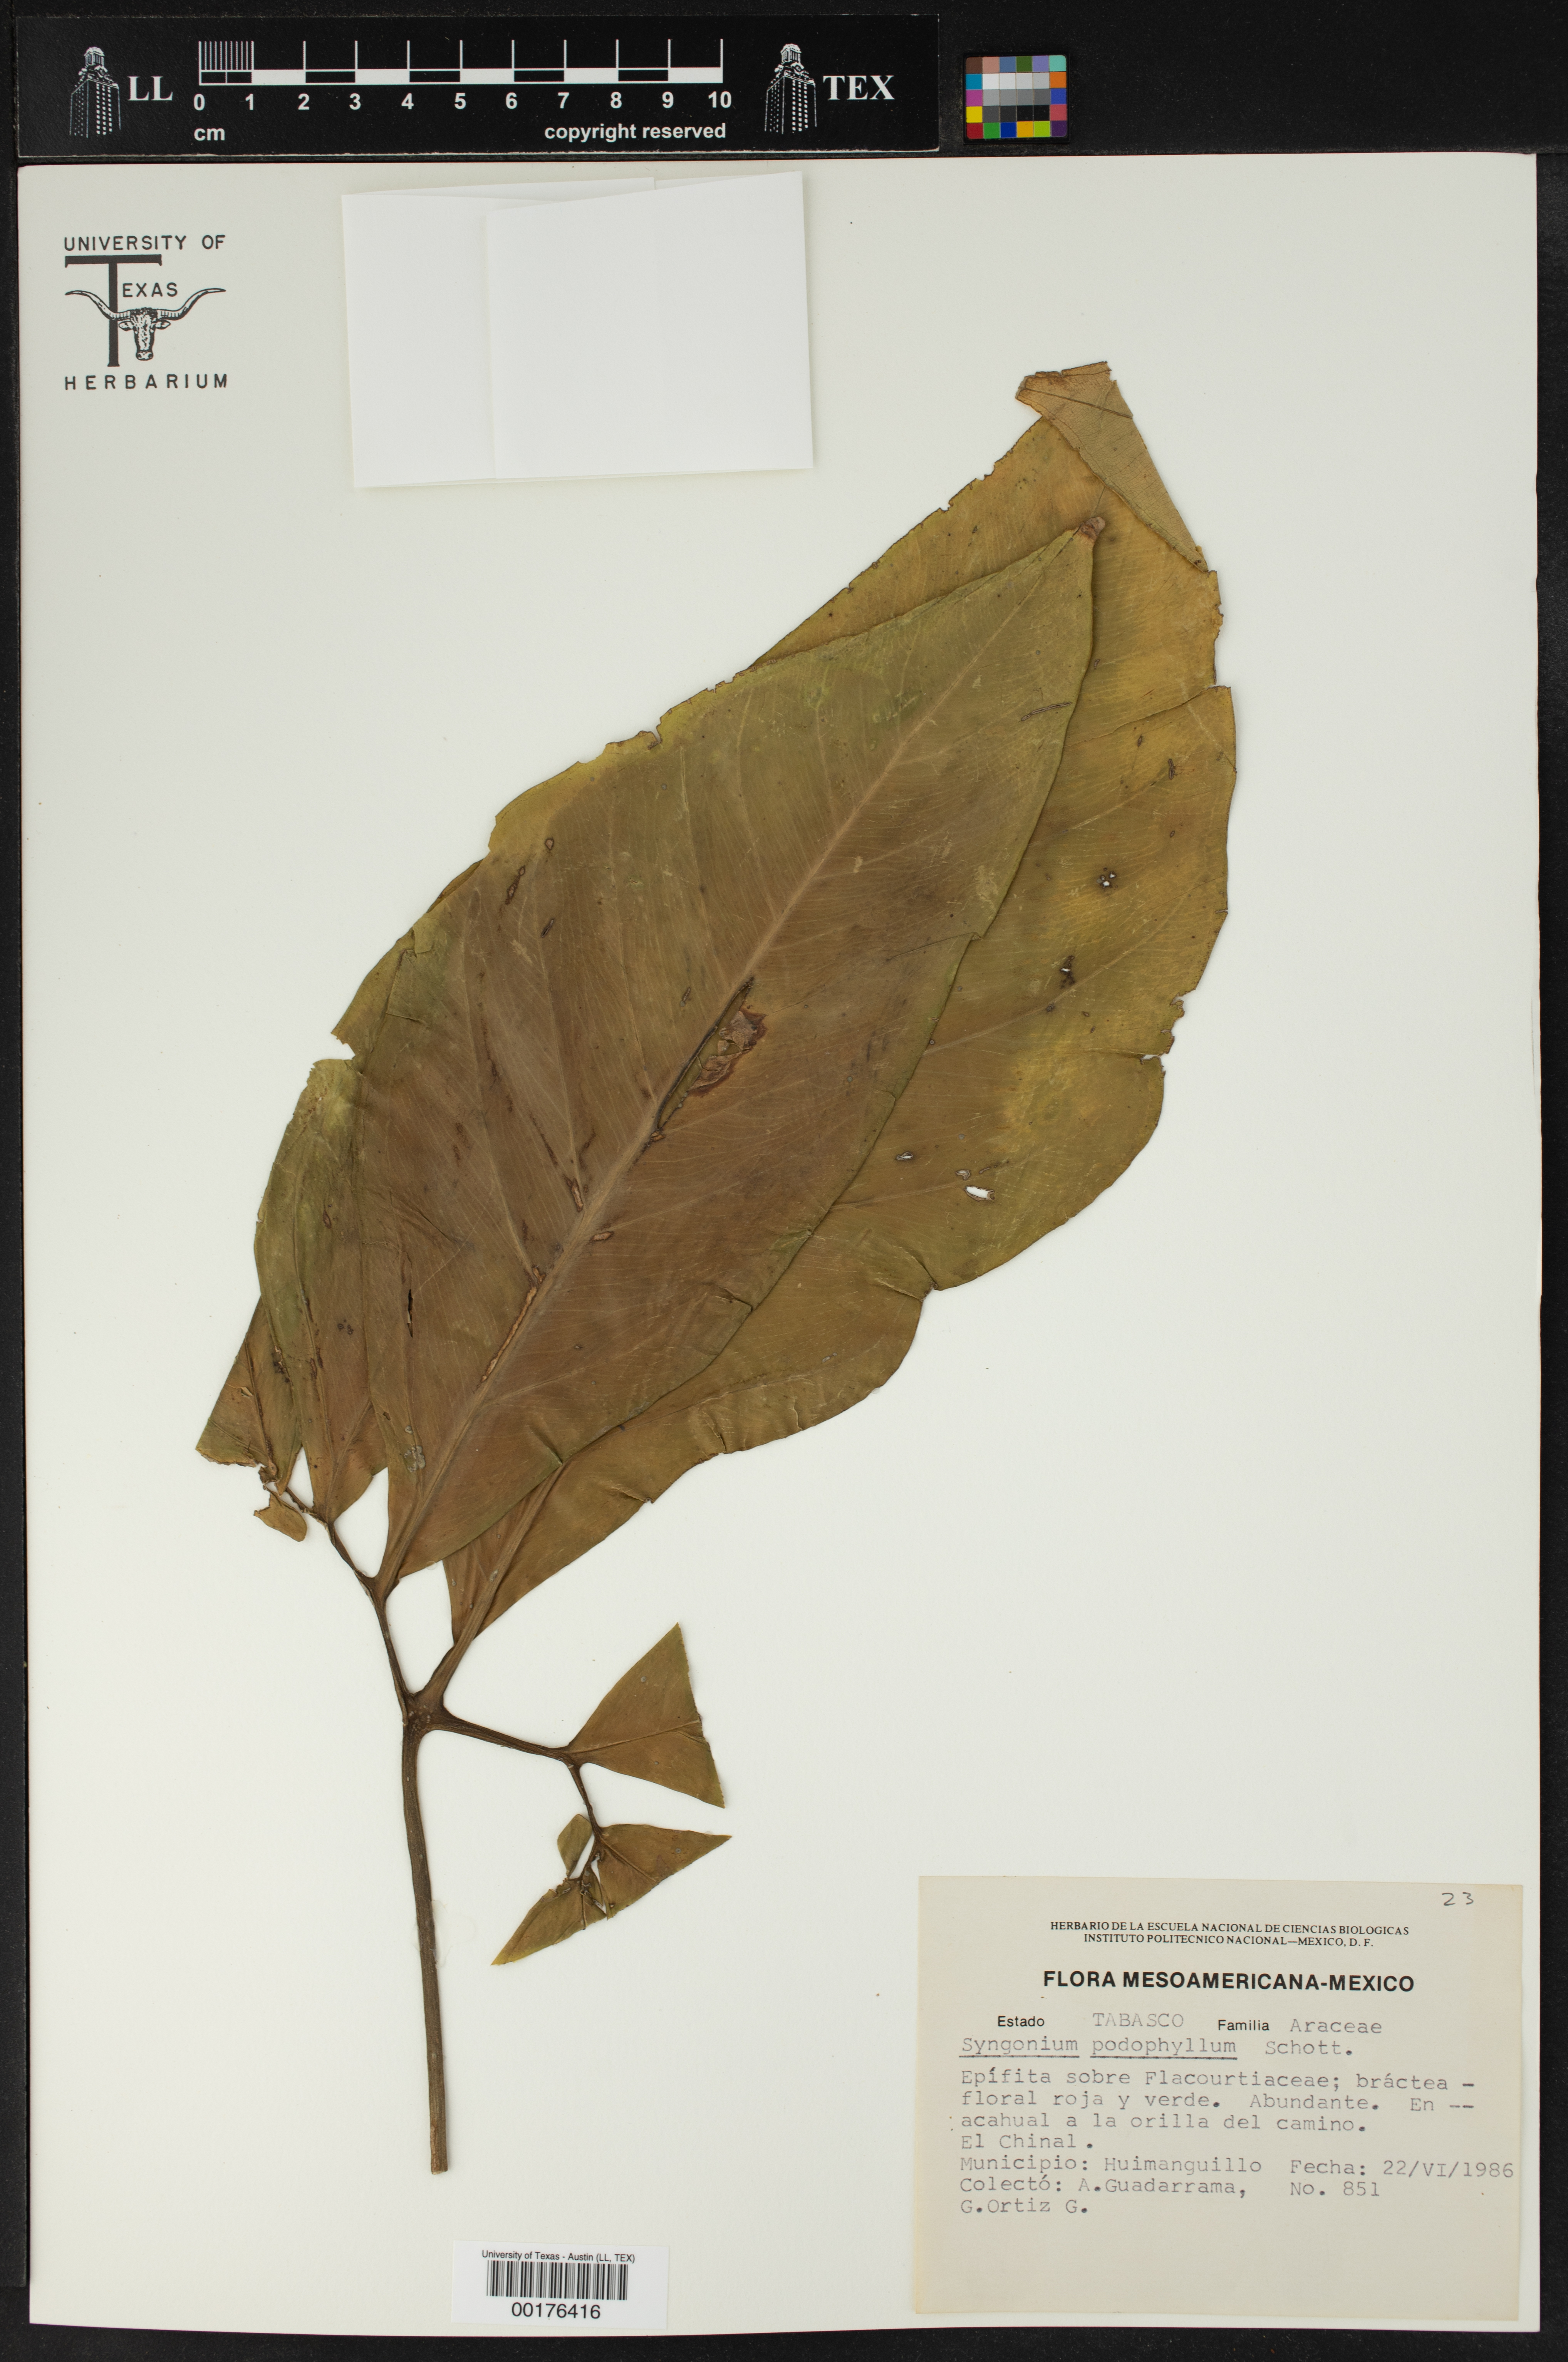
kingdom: Plantae
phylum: Tracheophyta
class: Liliopsida
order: Alismatales
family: Araceae
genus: Syngonium
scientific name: Syngonium podophyllum
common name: American evergreen
